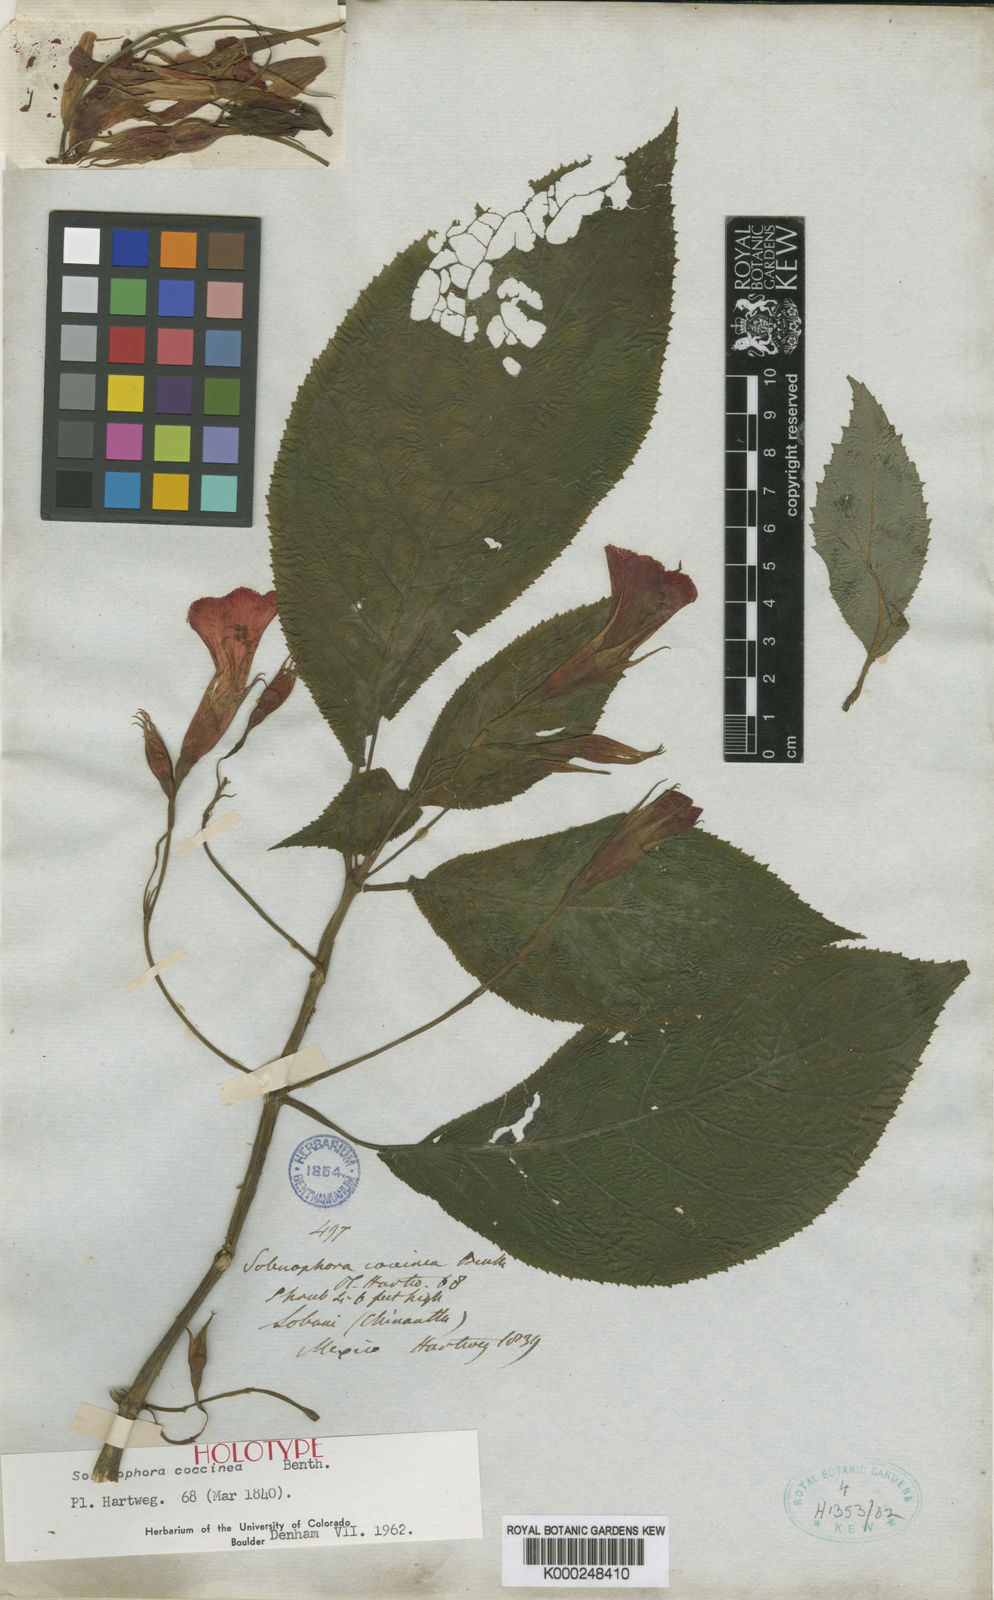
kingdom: Plantae
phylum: Tracheophyta
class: Magnoliopsida
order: Lamiales
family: Gesneriaceae
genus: Solenophora
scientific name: Solenophora coccinea
